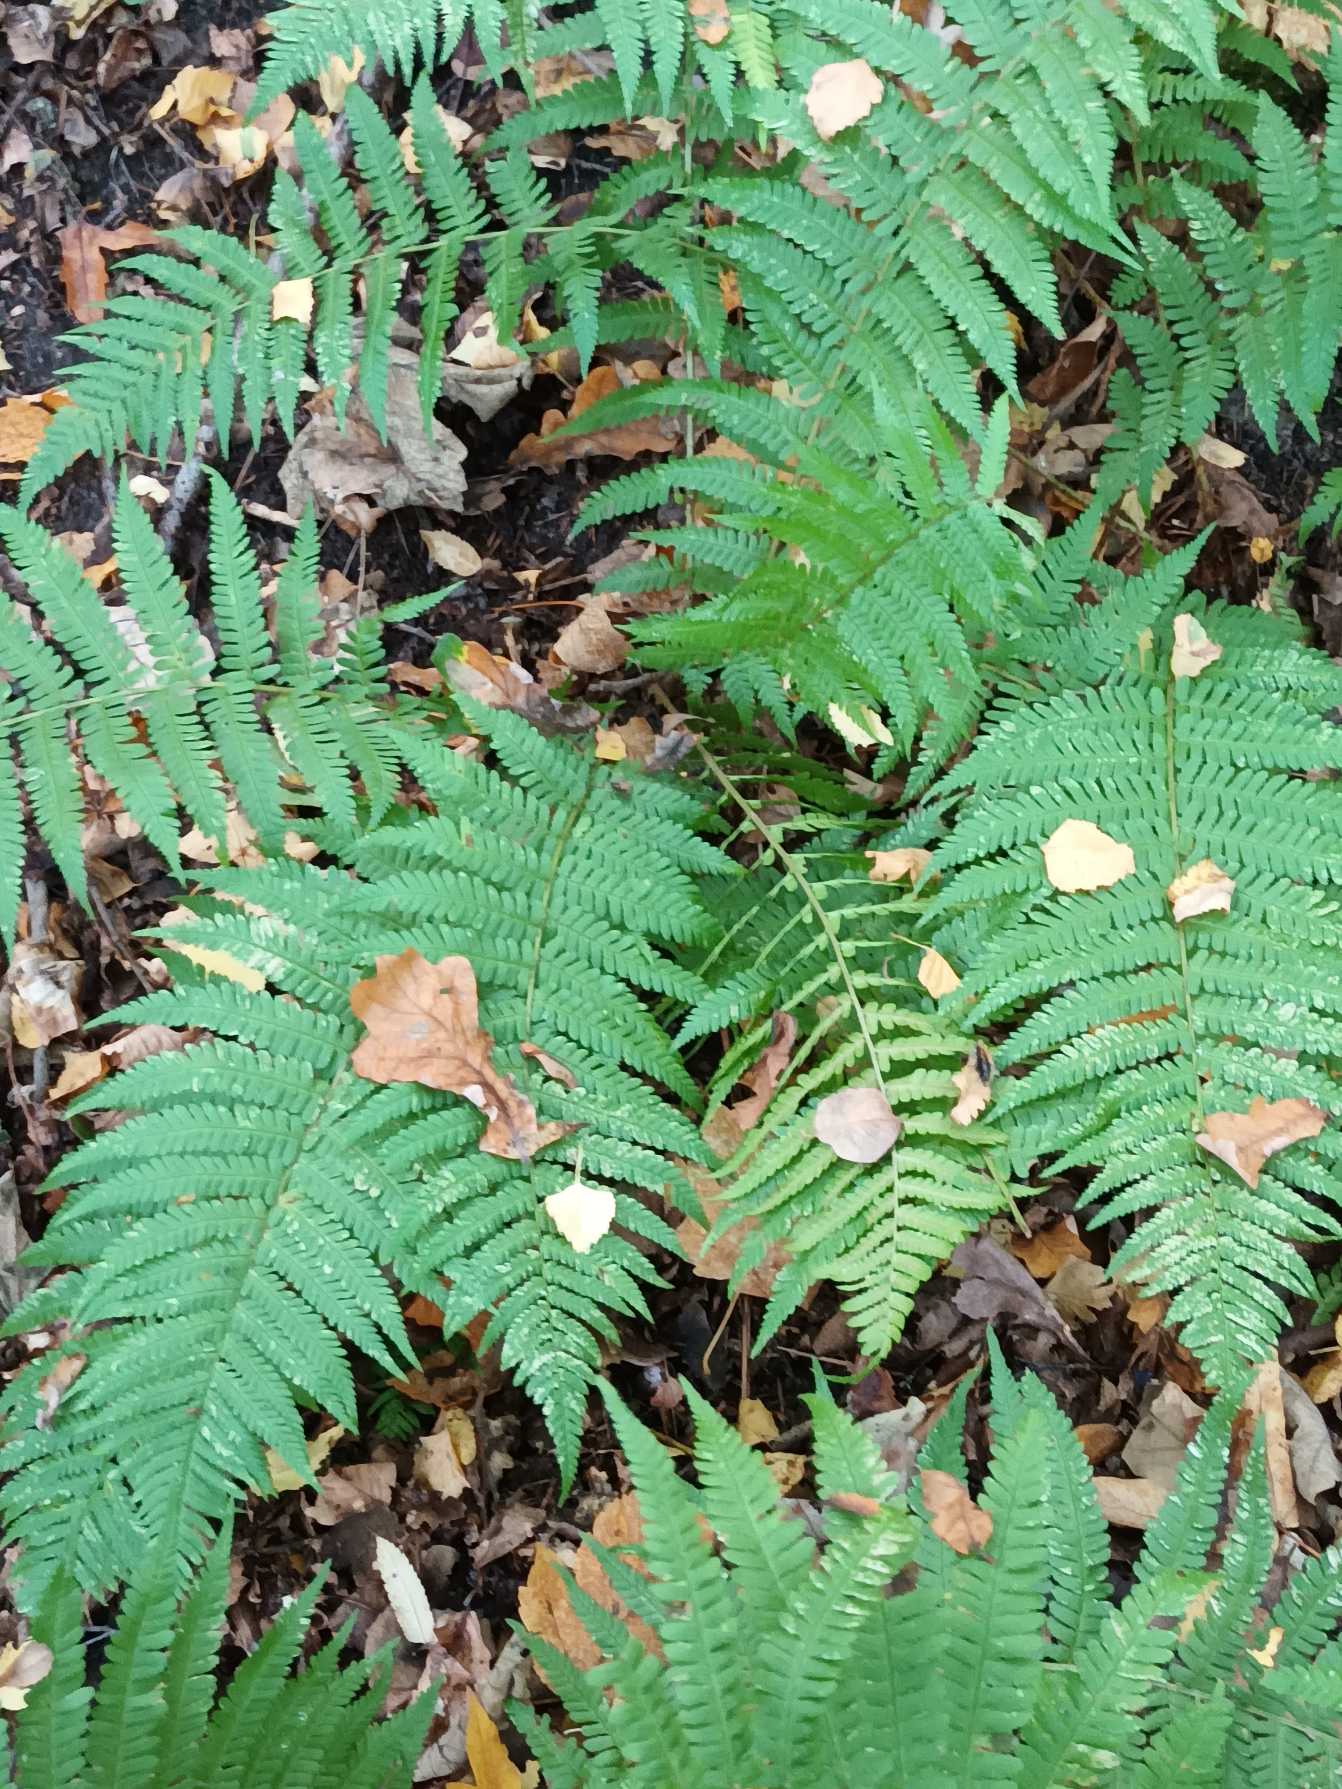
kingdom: Plantae
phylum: Tracheophyta
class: Polypodiopsida
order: Polypodiales
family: Dryopteridaceae
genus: Dryopteris
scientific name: Dryopteris filix-mas
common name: Almindelig mangeløv
